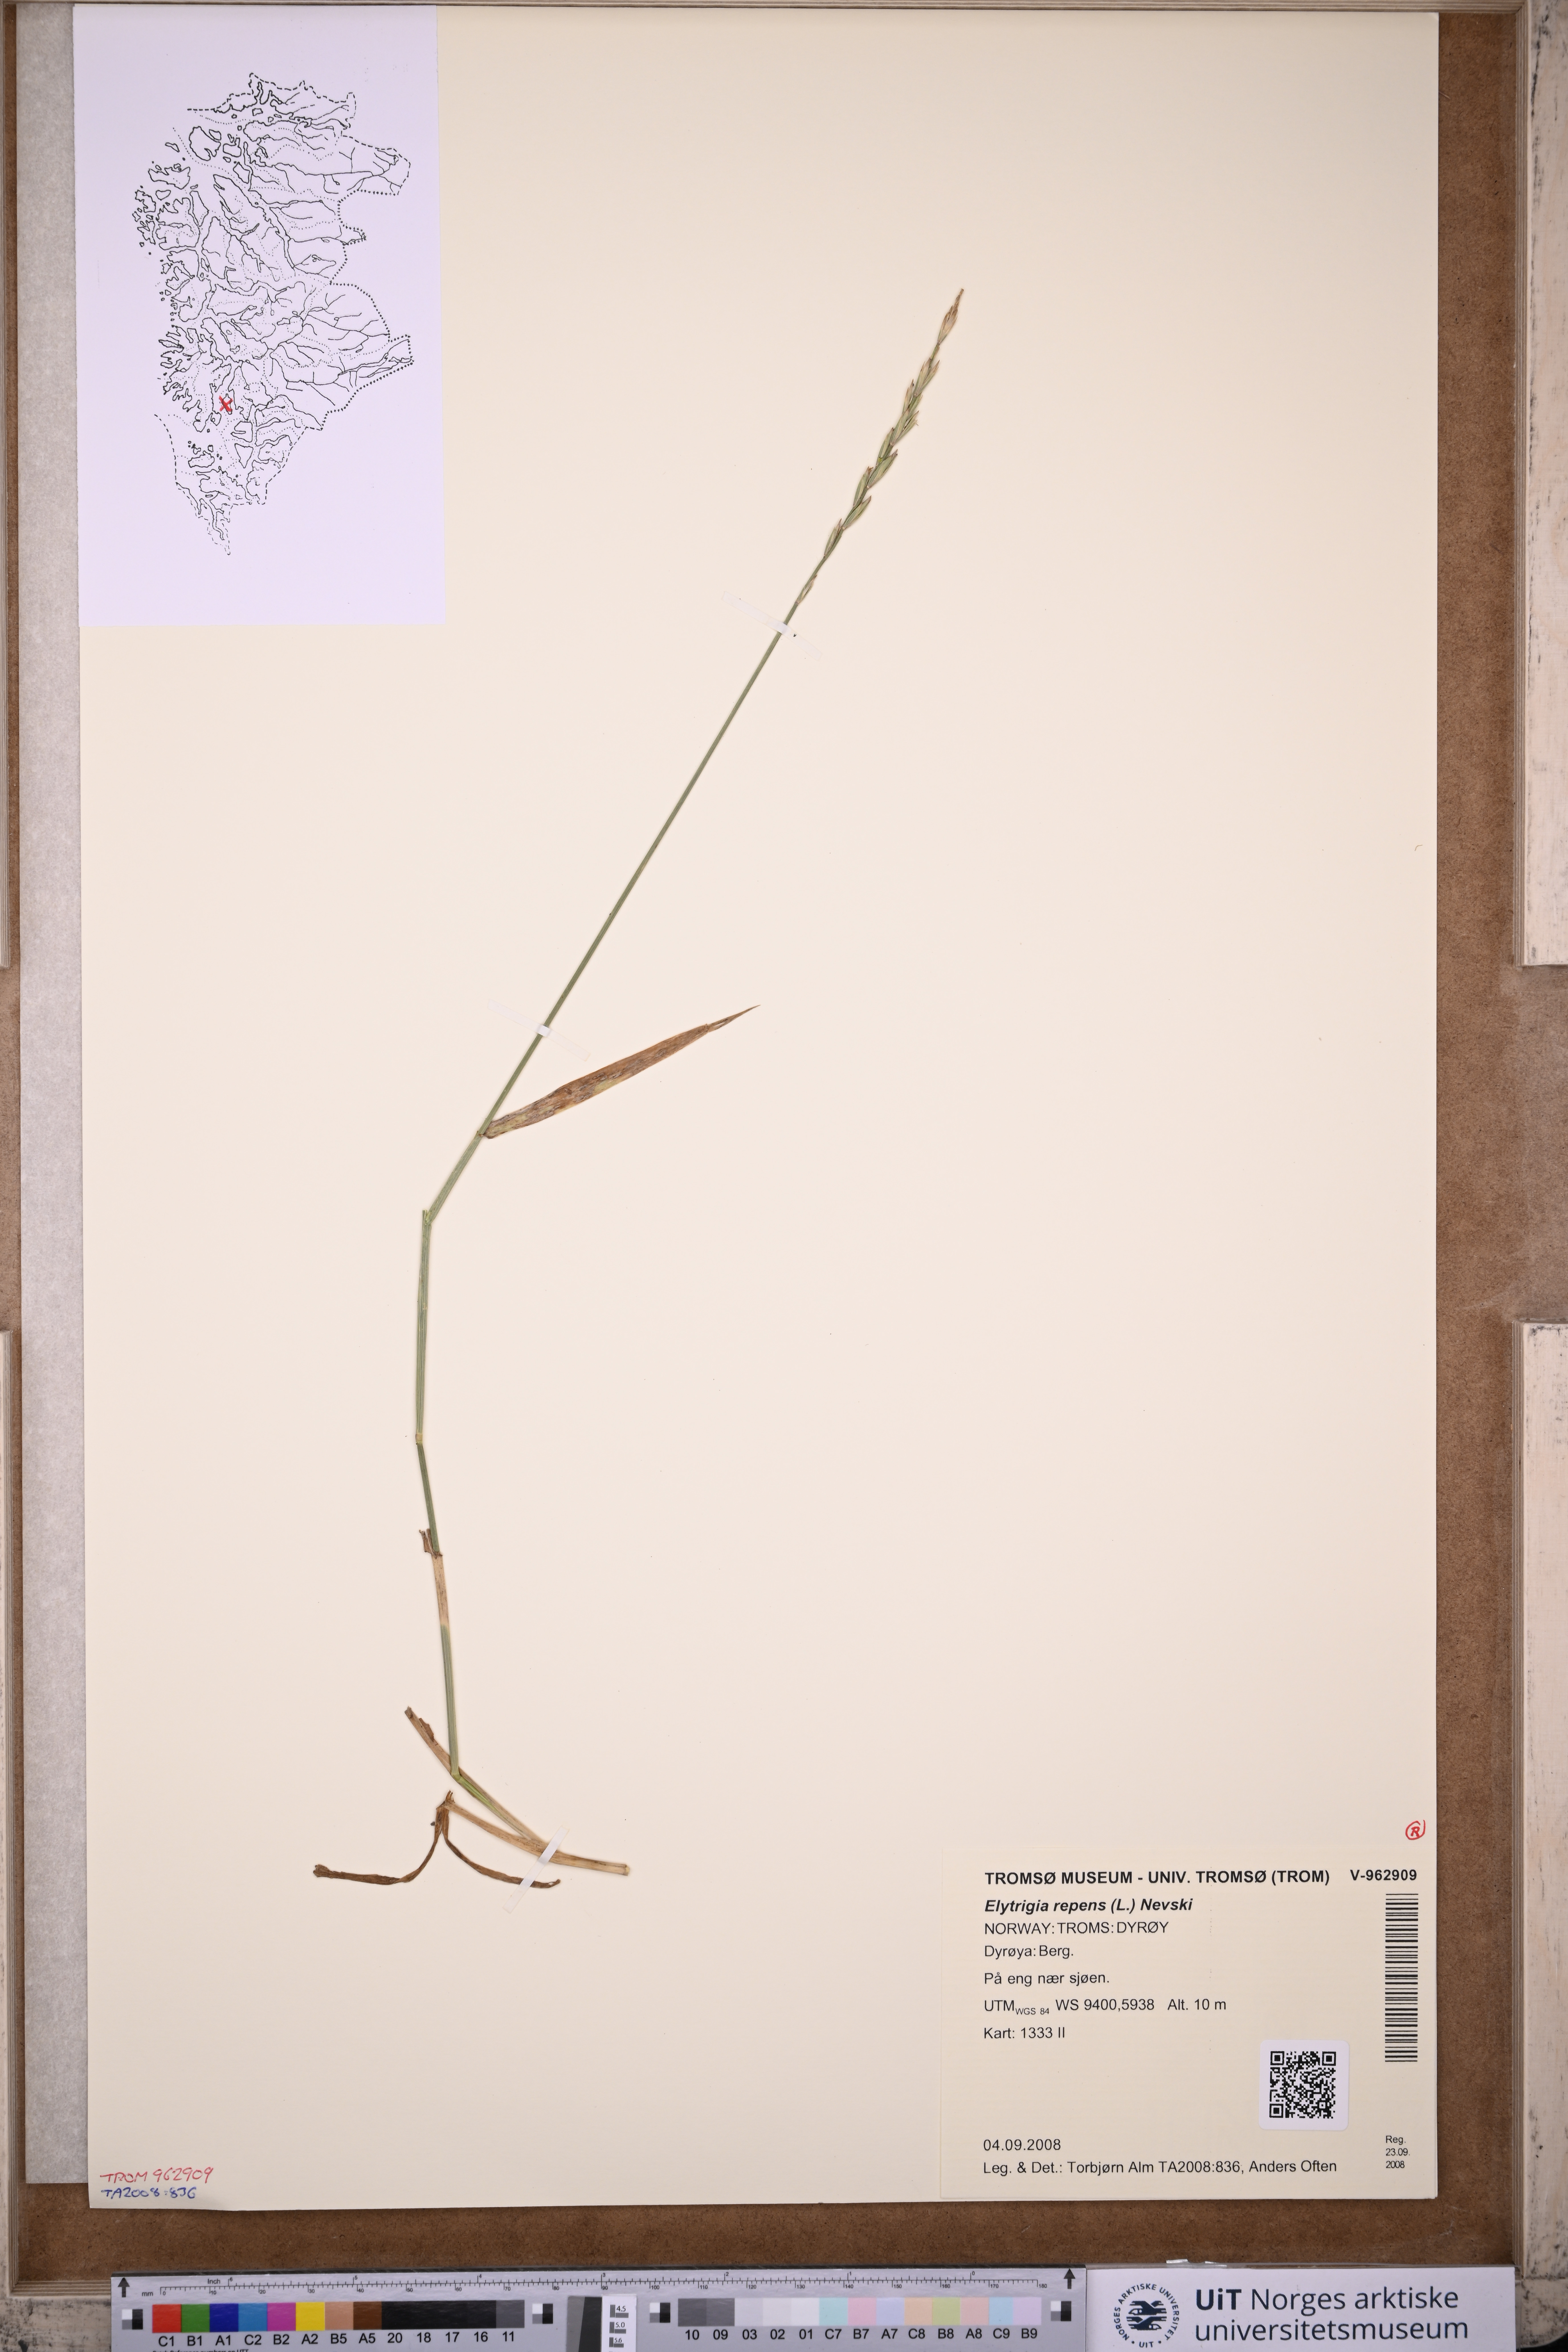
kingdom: Plantae
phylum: Tracheophyta
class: Liliopsida
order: Poales
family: Poaceae
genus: Elymus
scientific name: Elymus repens
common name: Quackgrass
